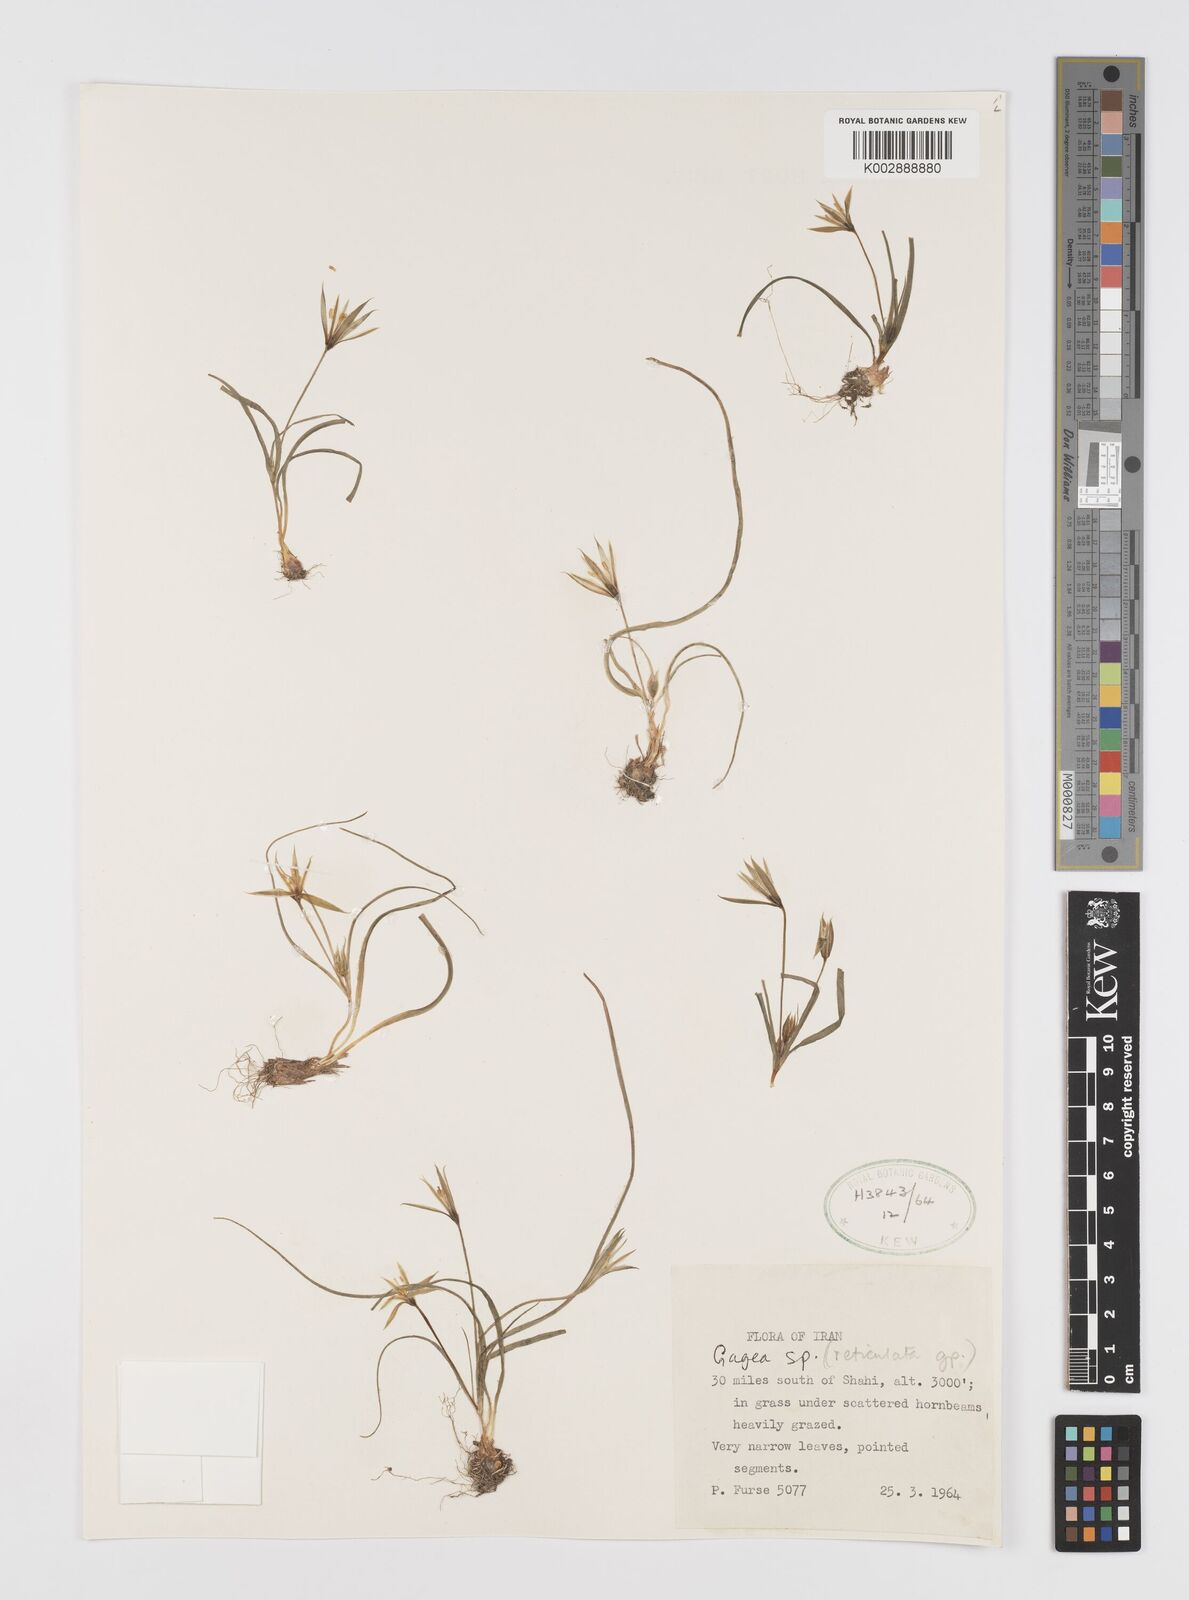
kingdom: Plantae
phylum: Tracheophyta
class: Liliopsida
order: Liliales
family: Liliaceae
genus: Gagea
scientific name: Gagea
